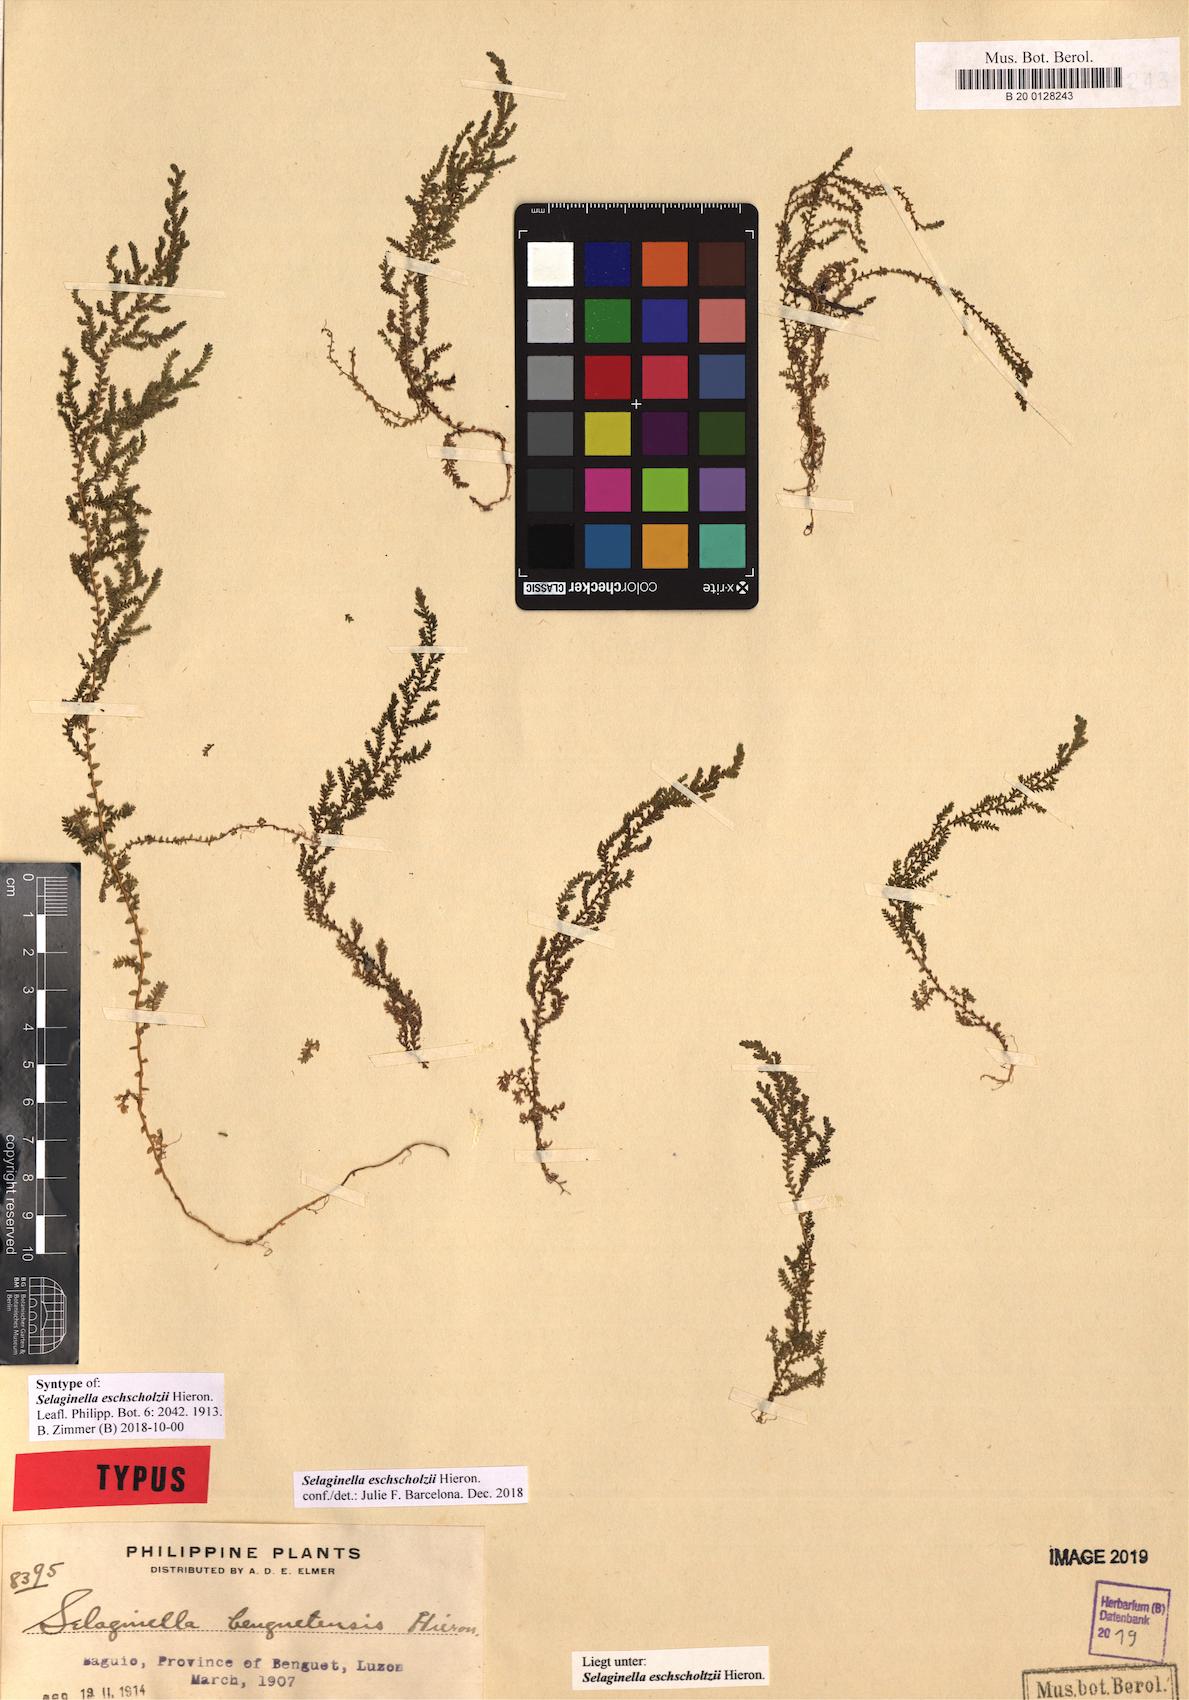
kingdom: Plantae
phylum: Tracheophyta
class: Lycopodiopsida
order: Selaginellales
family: Selaginellaceae
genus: Selaginella
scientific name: Selaginella eschscholzii
